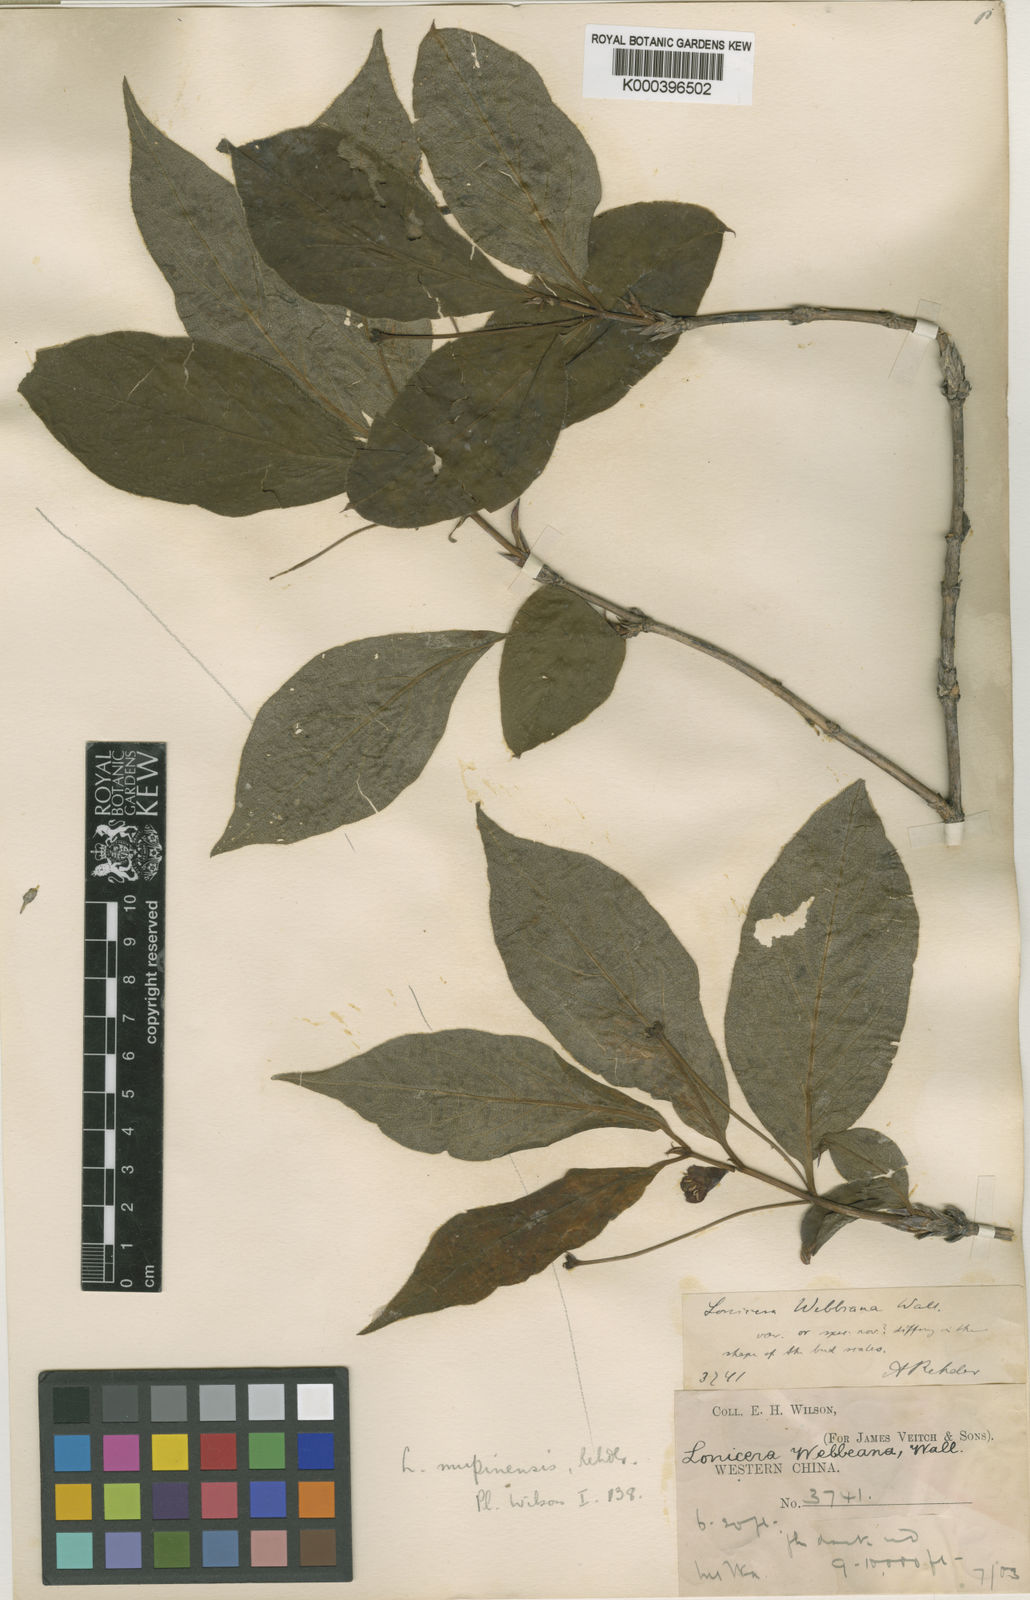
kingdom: Plantae
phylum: Tracheophyta
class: Magnoliopsida
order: Dipsacales
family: Caprifoliaceae
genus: Lonicera
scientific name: Lonicera webbiana
